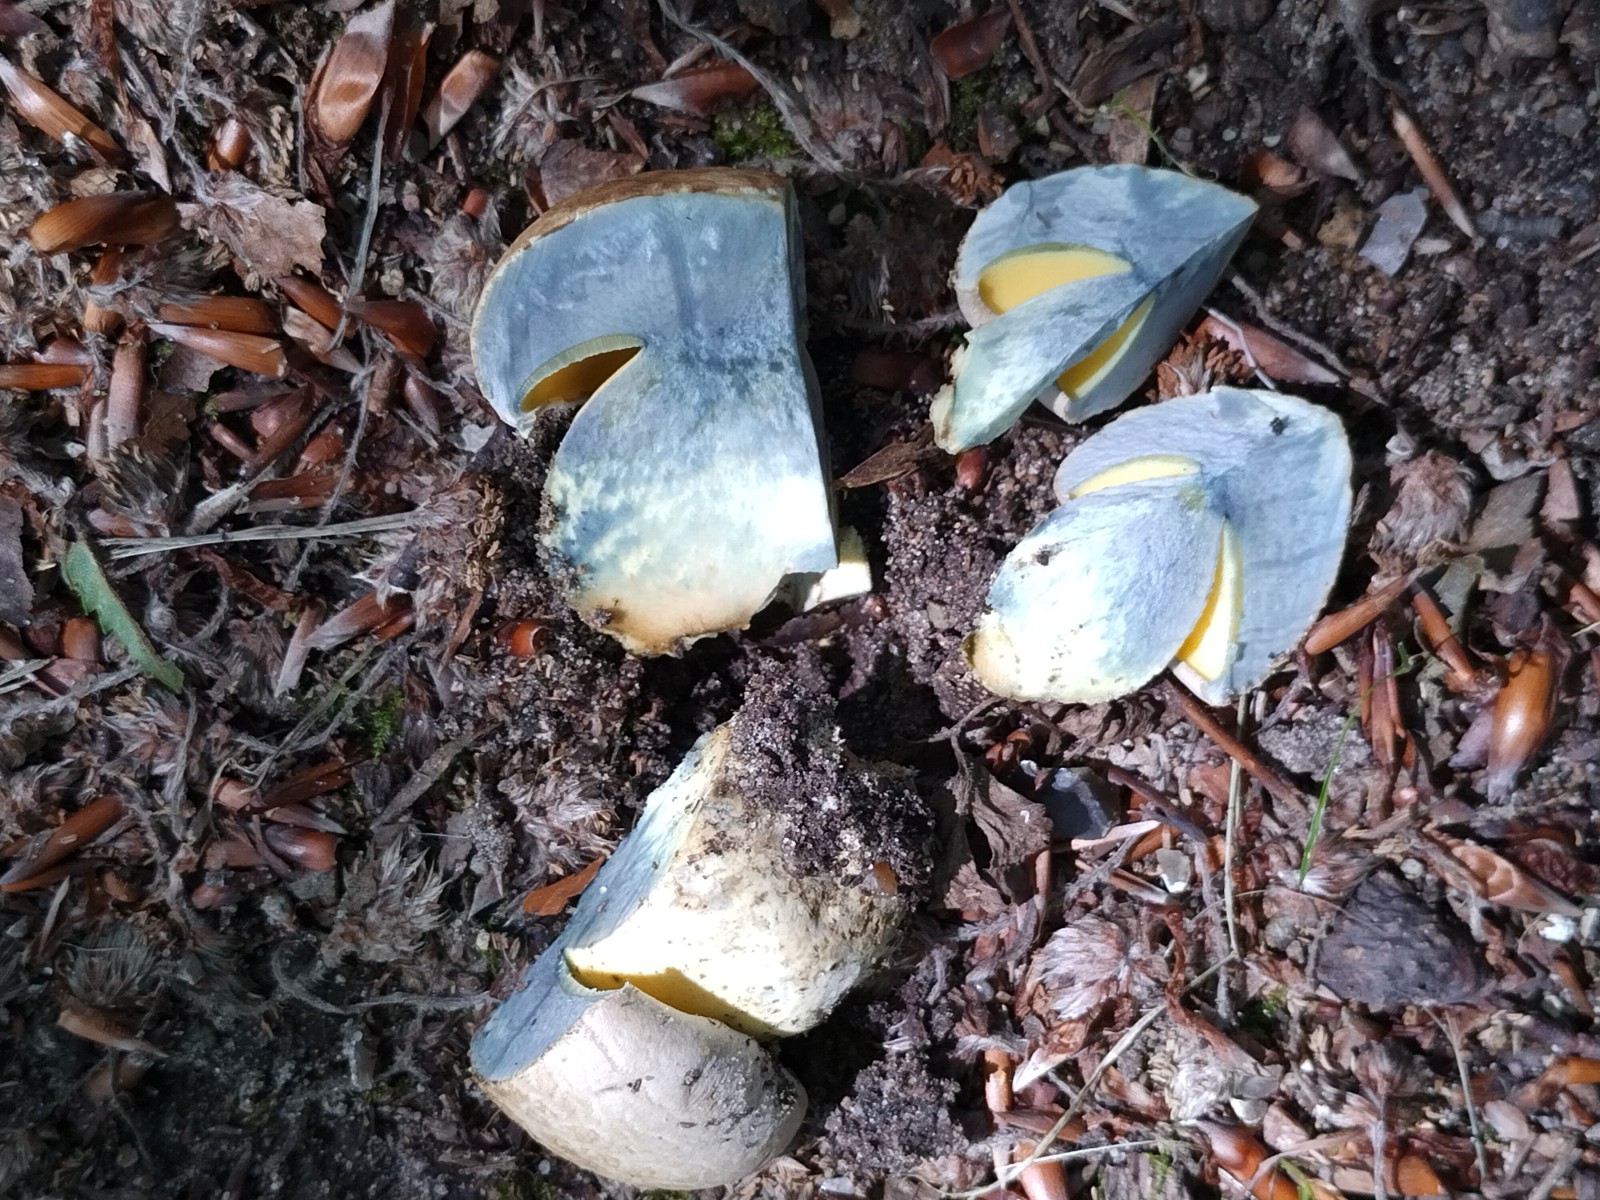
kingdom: Fungi
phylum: Basidiomycota
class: Agaricomycetes
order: Boletales
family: Boletaceae
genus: Caloboletus
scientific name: Caloboletus radicans
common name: rod-rørhat
